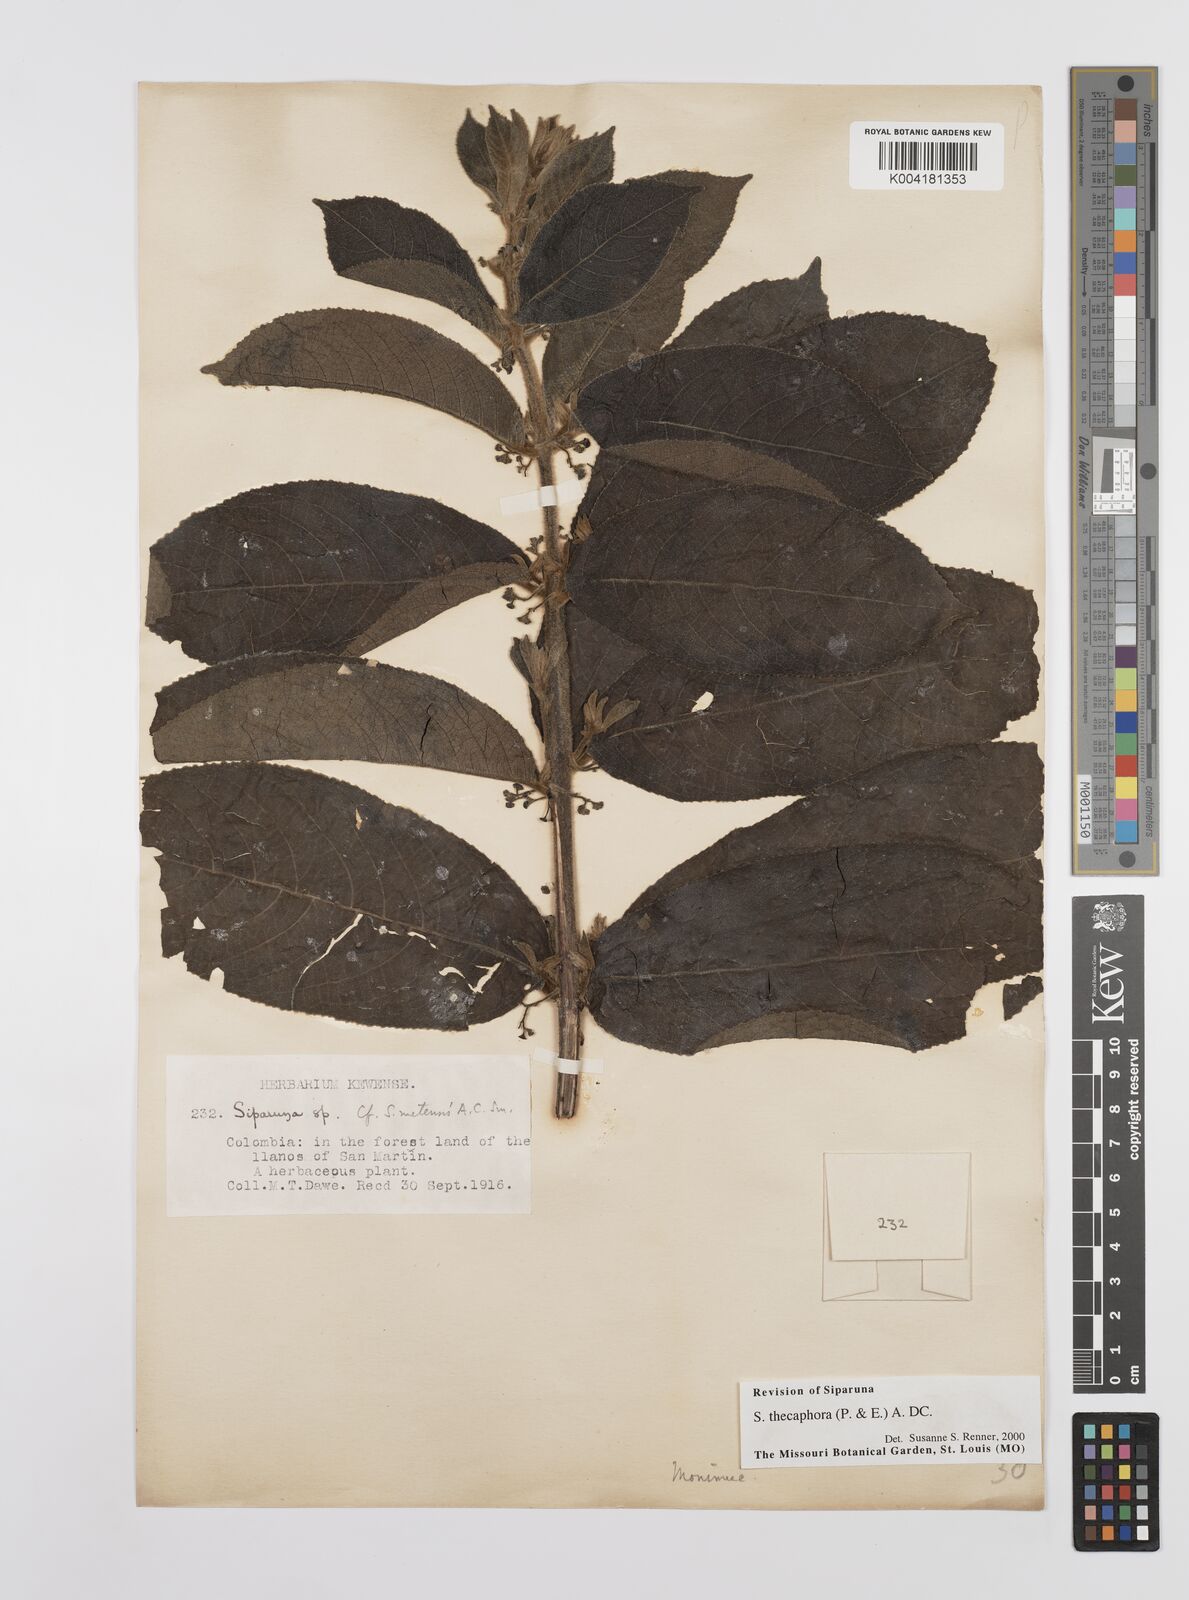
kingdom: Plantae
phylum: Tracheophyta
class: Magnoliopsida
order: Laurales
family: Siparunaceae
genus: Siparuna
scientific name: Siparuna thecaphora
